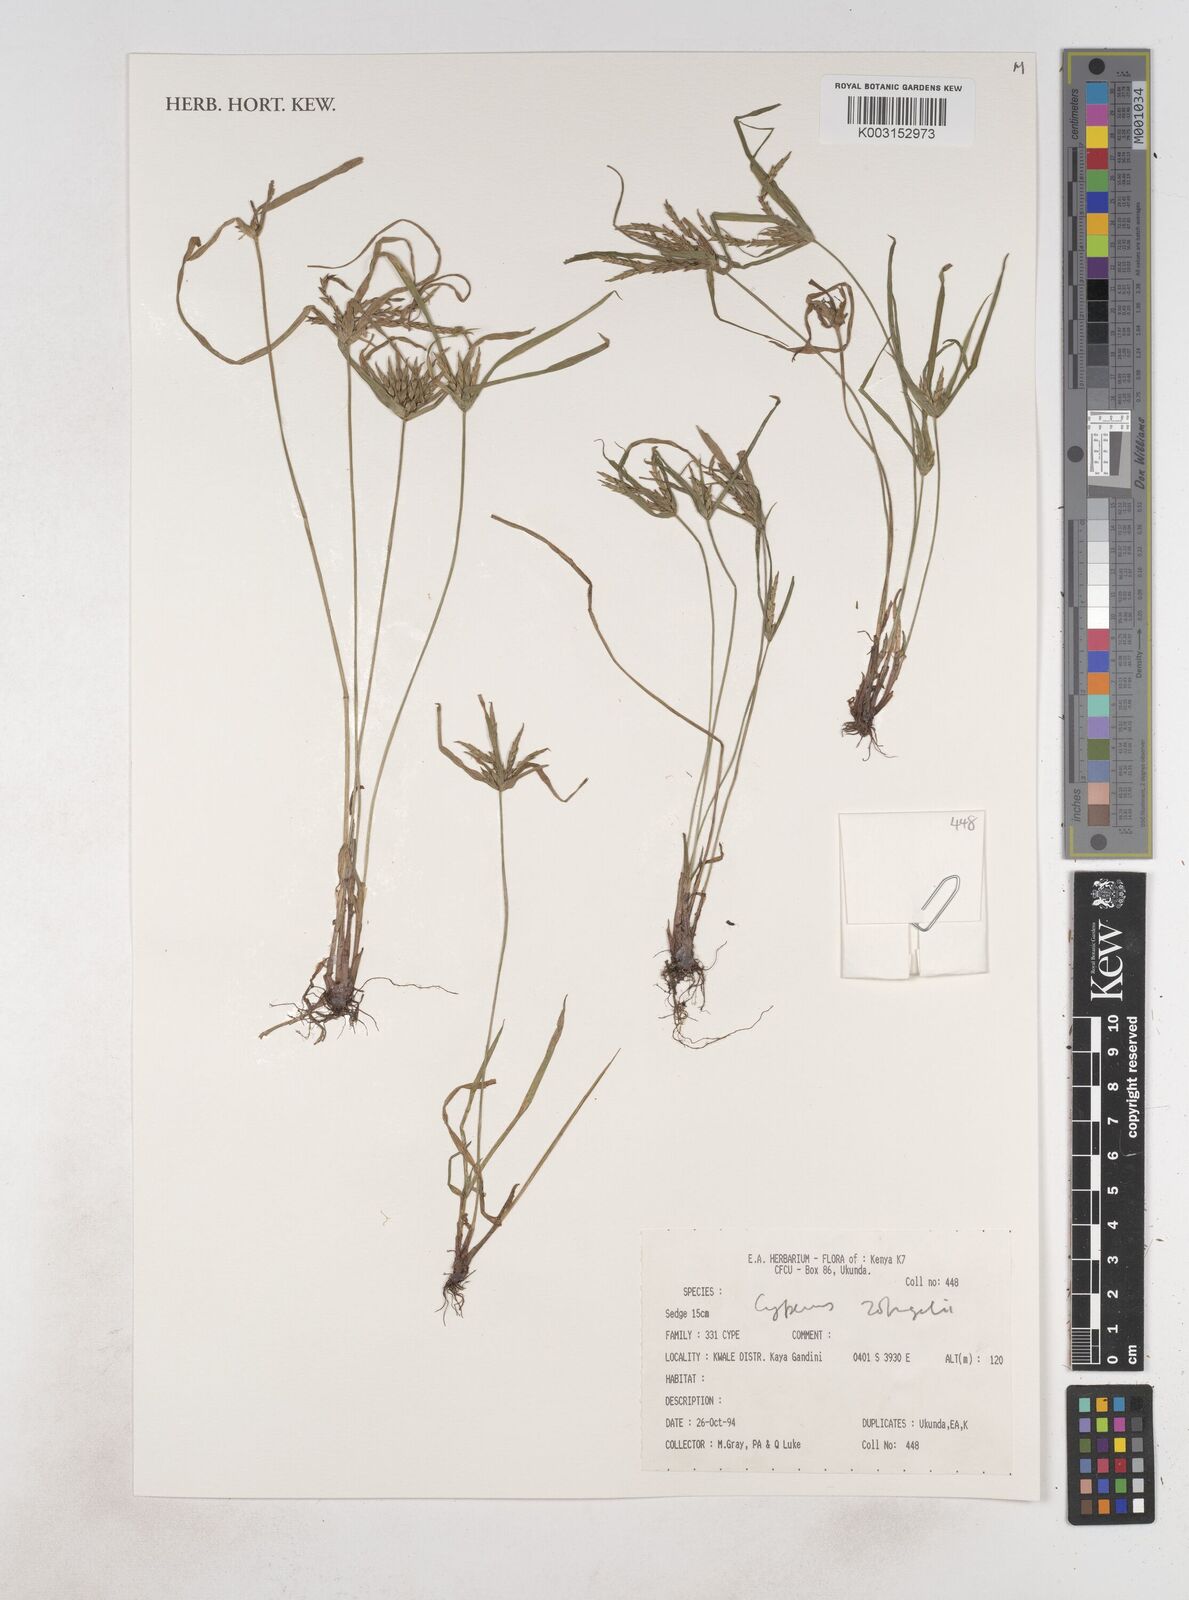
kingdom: Plantae
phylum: Tracheophyta
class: Liliopsida
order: Poales
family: Cyperaceae
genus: Cyperus
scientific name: Cyperus zollingerioides
